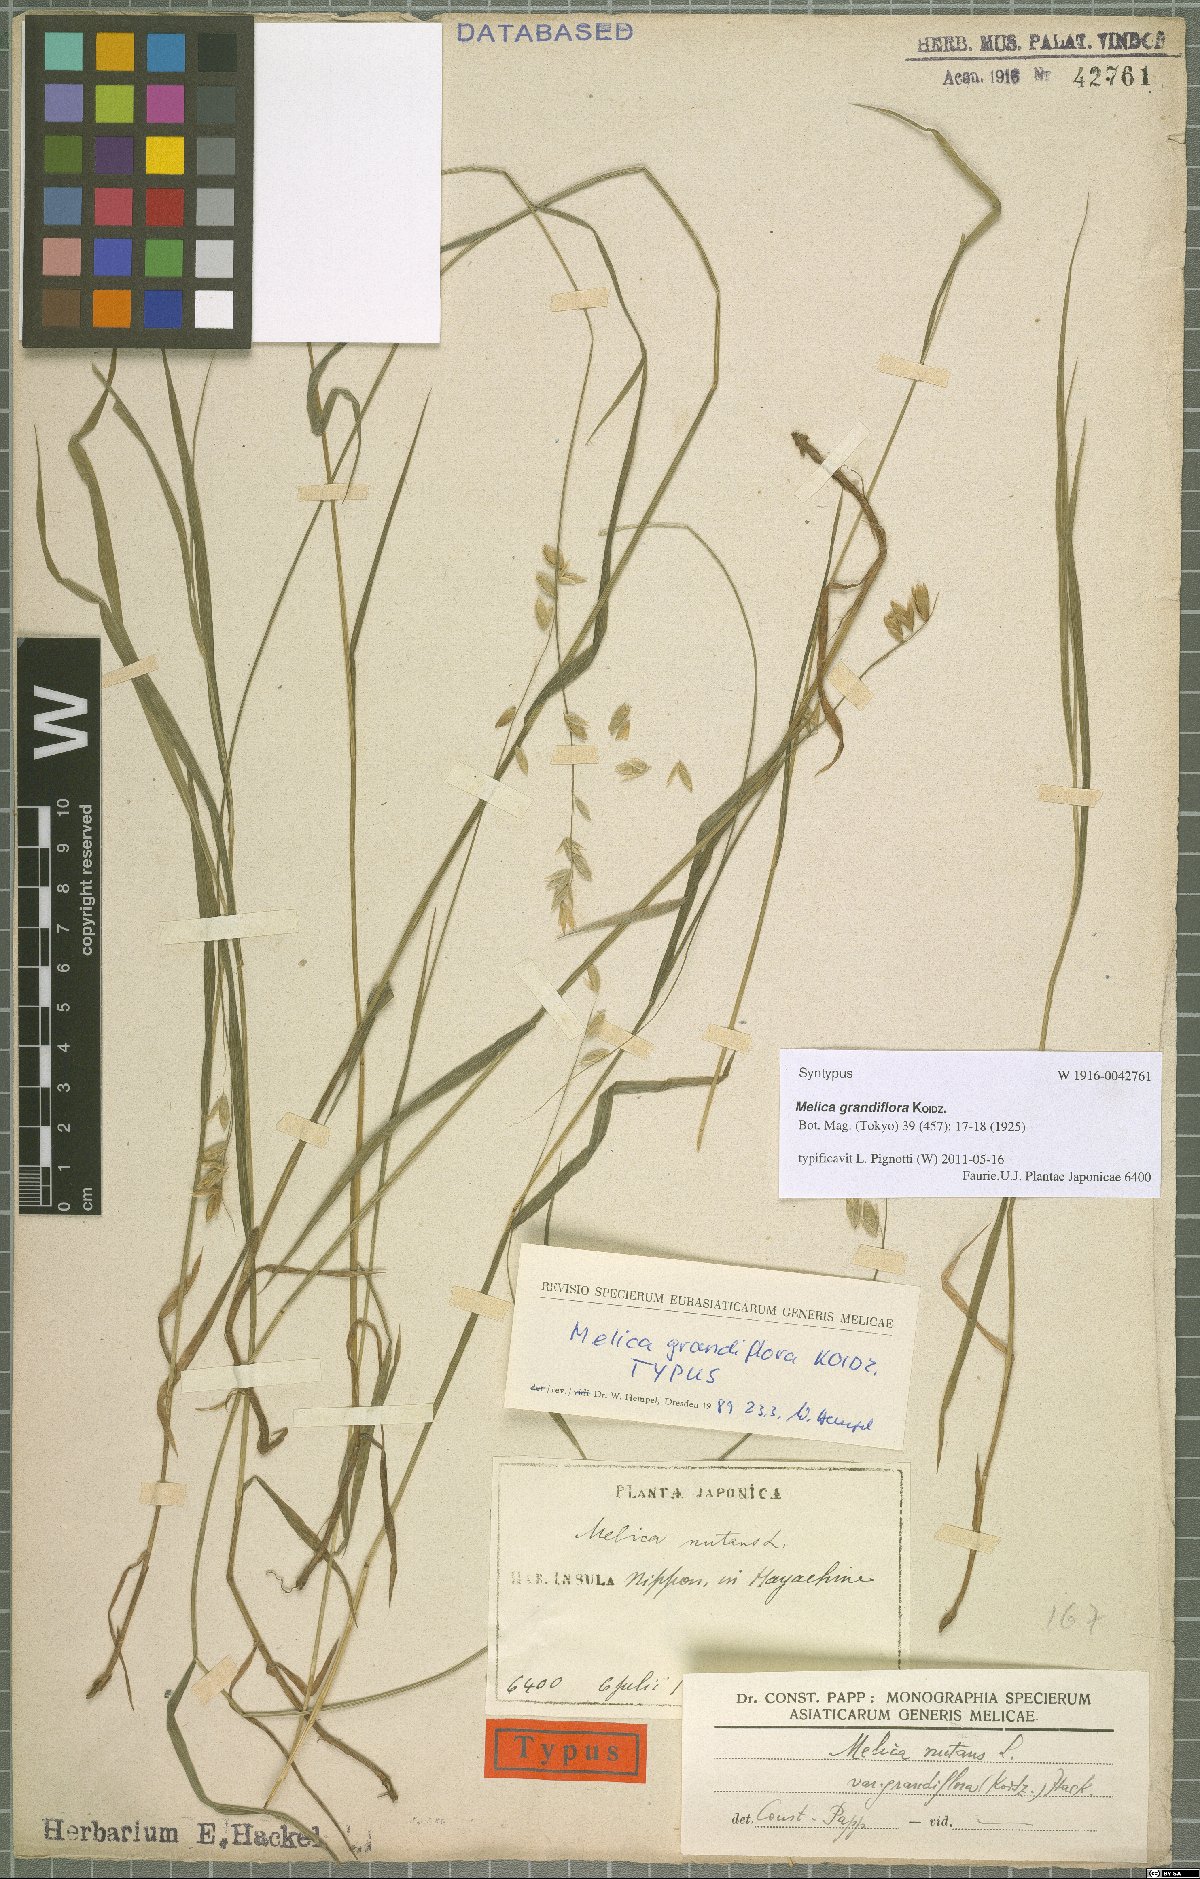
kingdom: Plantae
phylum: Tracheophyta
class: Liliopsida
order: Poales
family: Poaceae
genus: Melica
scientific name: Melica nutans
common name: Mountain melick
